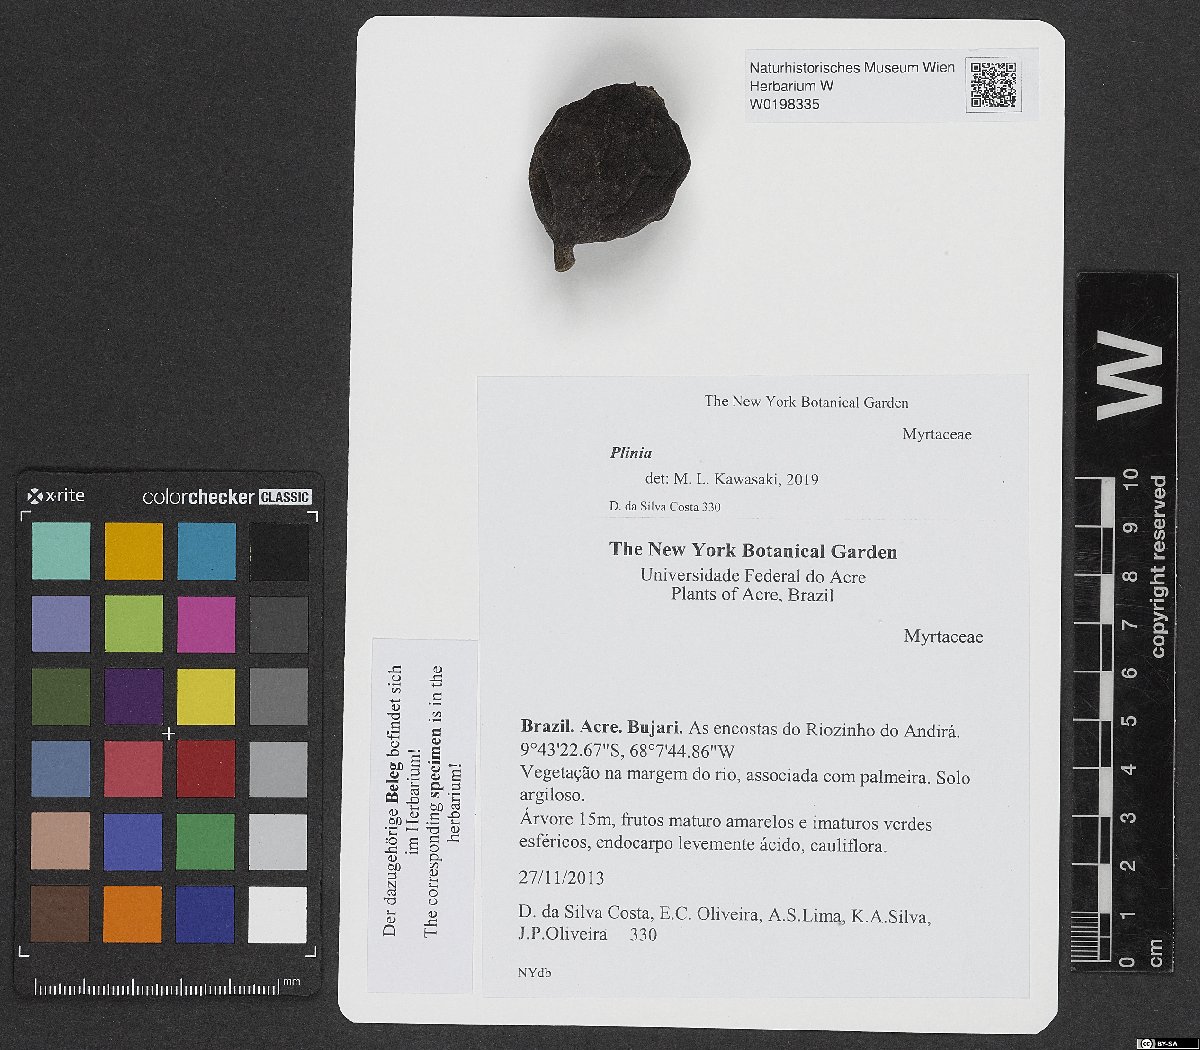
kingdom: Plantae
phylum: Tracheophyta
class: Magnoliopsida
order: Myrtales
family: Myrtaceae
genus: Plinia
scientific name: Plinia
